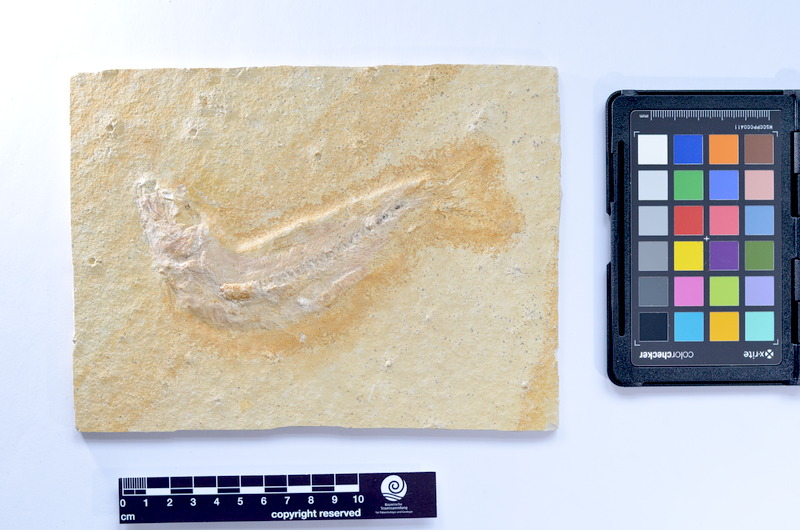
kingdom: Animalia
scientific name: Animalia
